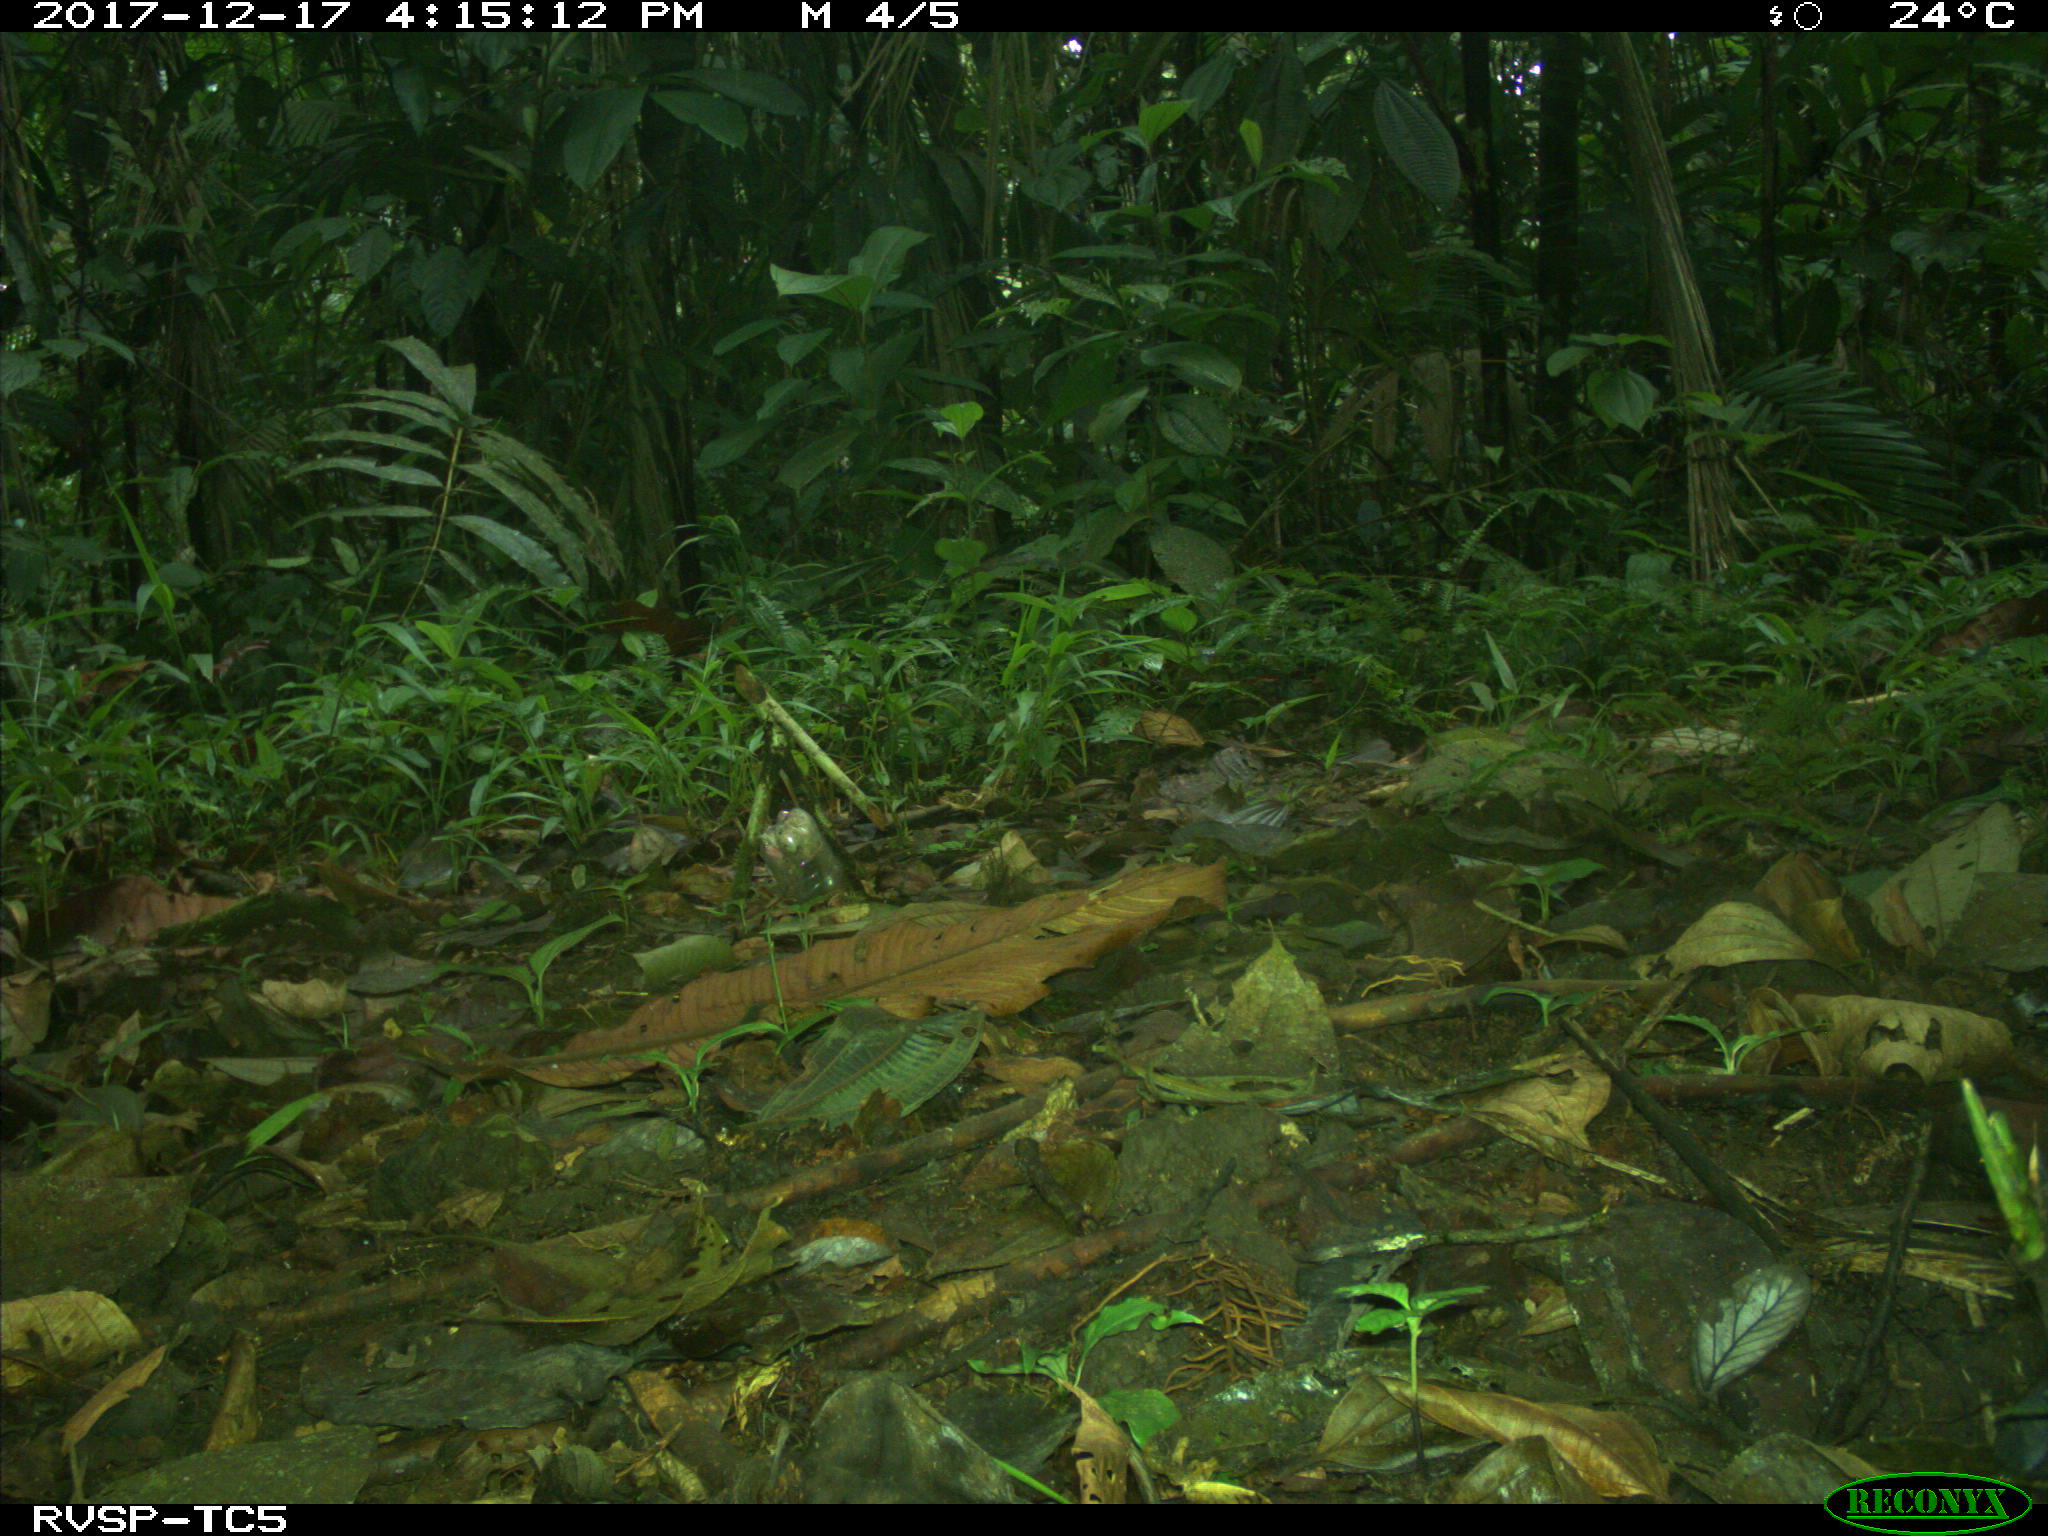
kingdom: Animalia
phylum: Chordata
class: Mammalia
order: Rodentia
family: Dasyproctidae
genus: Dasyprocta
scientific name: Dasyprocta punctata
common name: Central american agouti
